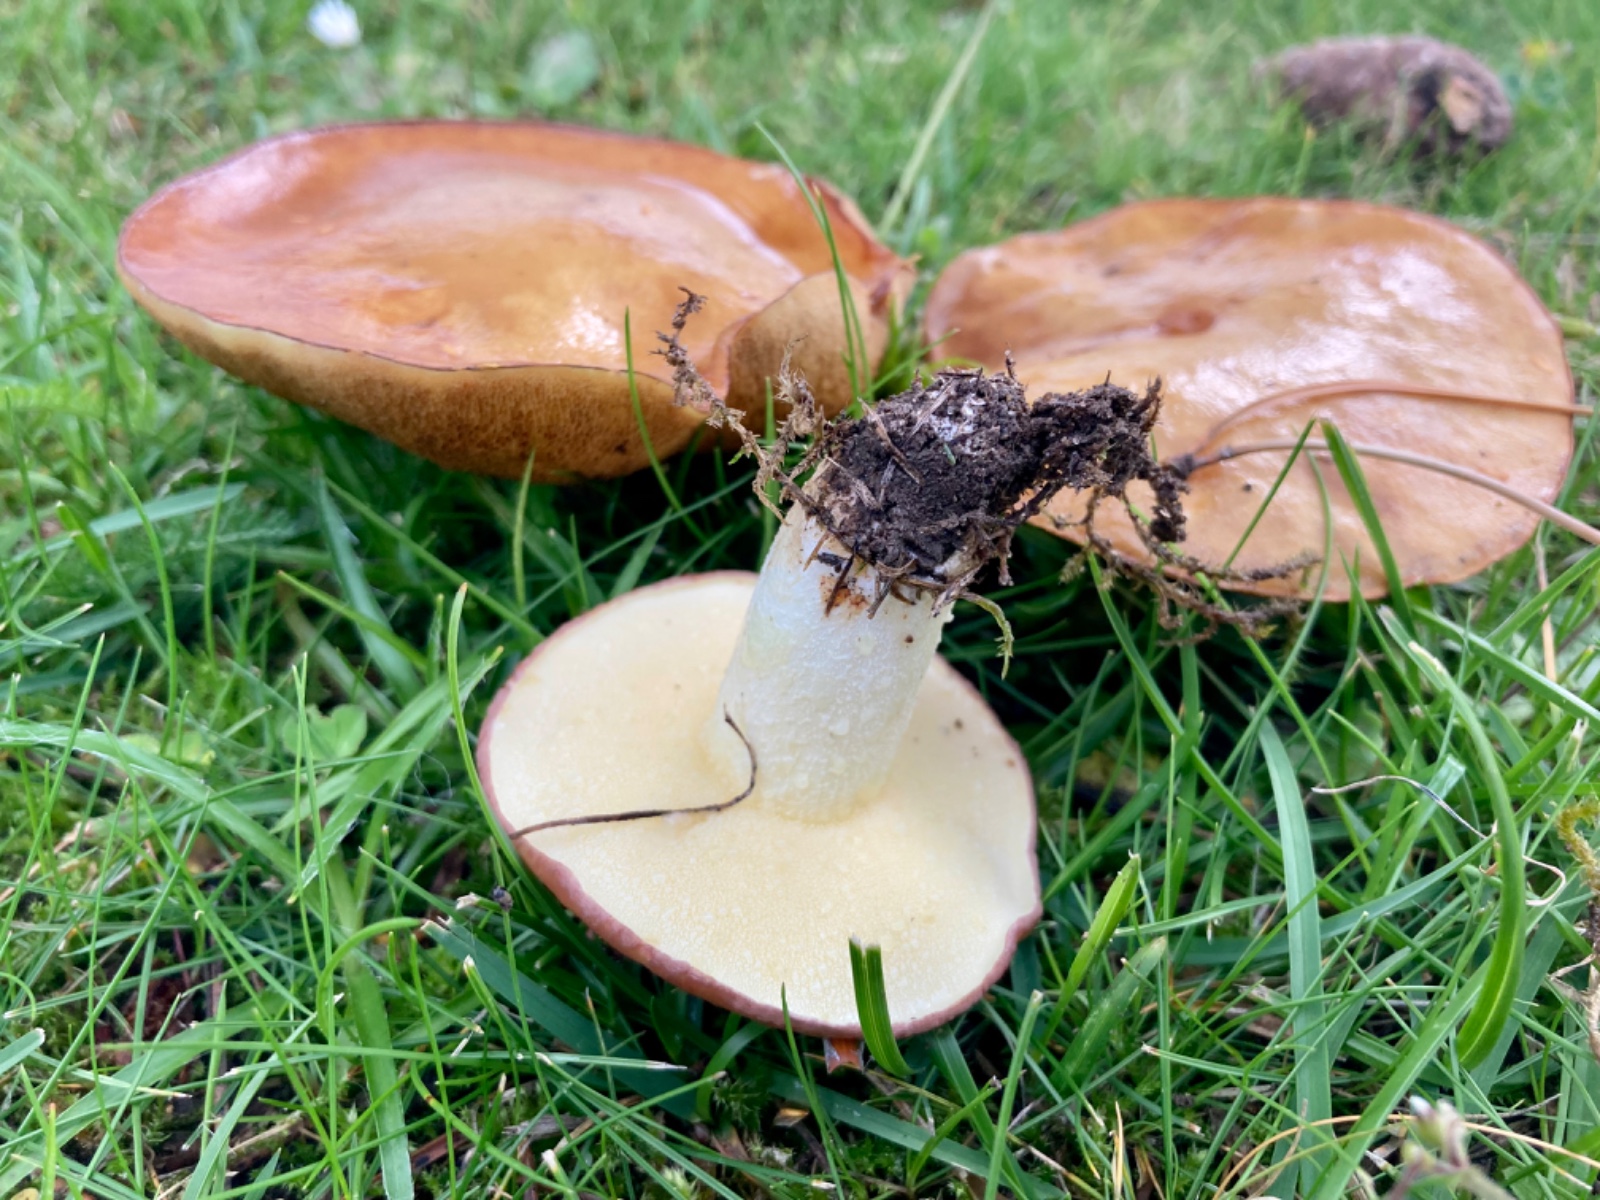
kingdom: Fungi
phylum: Basidiomycota
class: Agaricomycetes
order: Boletales
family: Suillaceae
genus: Suillus
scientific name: Suillus granulatus
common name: kornet slimrørhat
